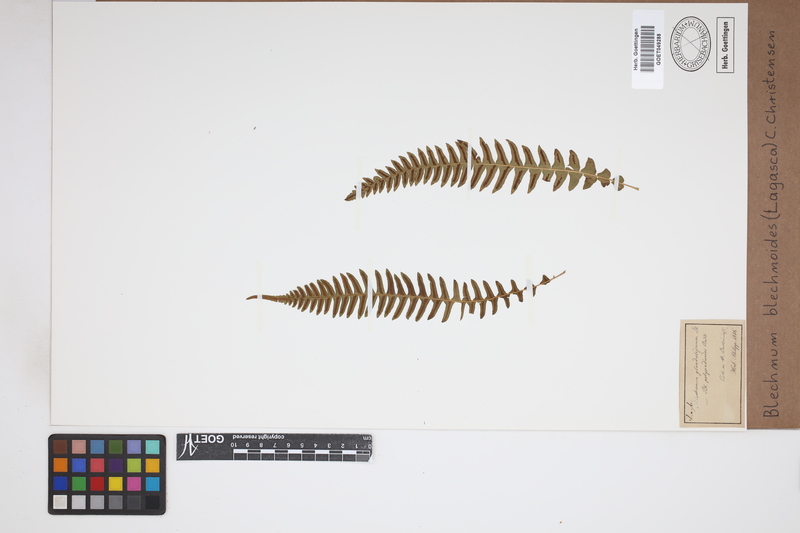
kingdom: Plantae
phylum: Tracheophyta
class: Polypodiopsida
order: Polypodiales
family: Blechnaceae
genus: Blechnum
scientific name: Blechnum polypodioides
